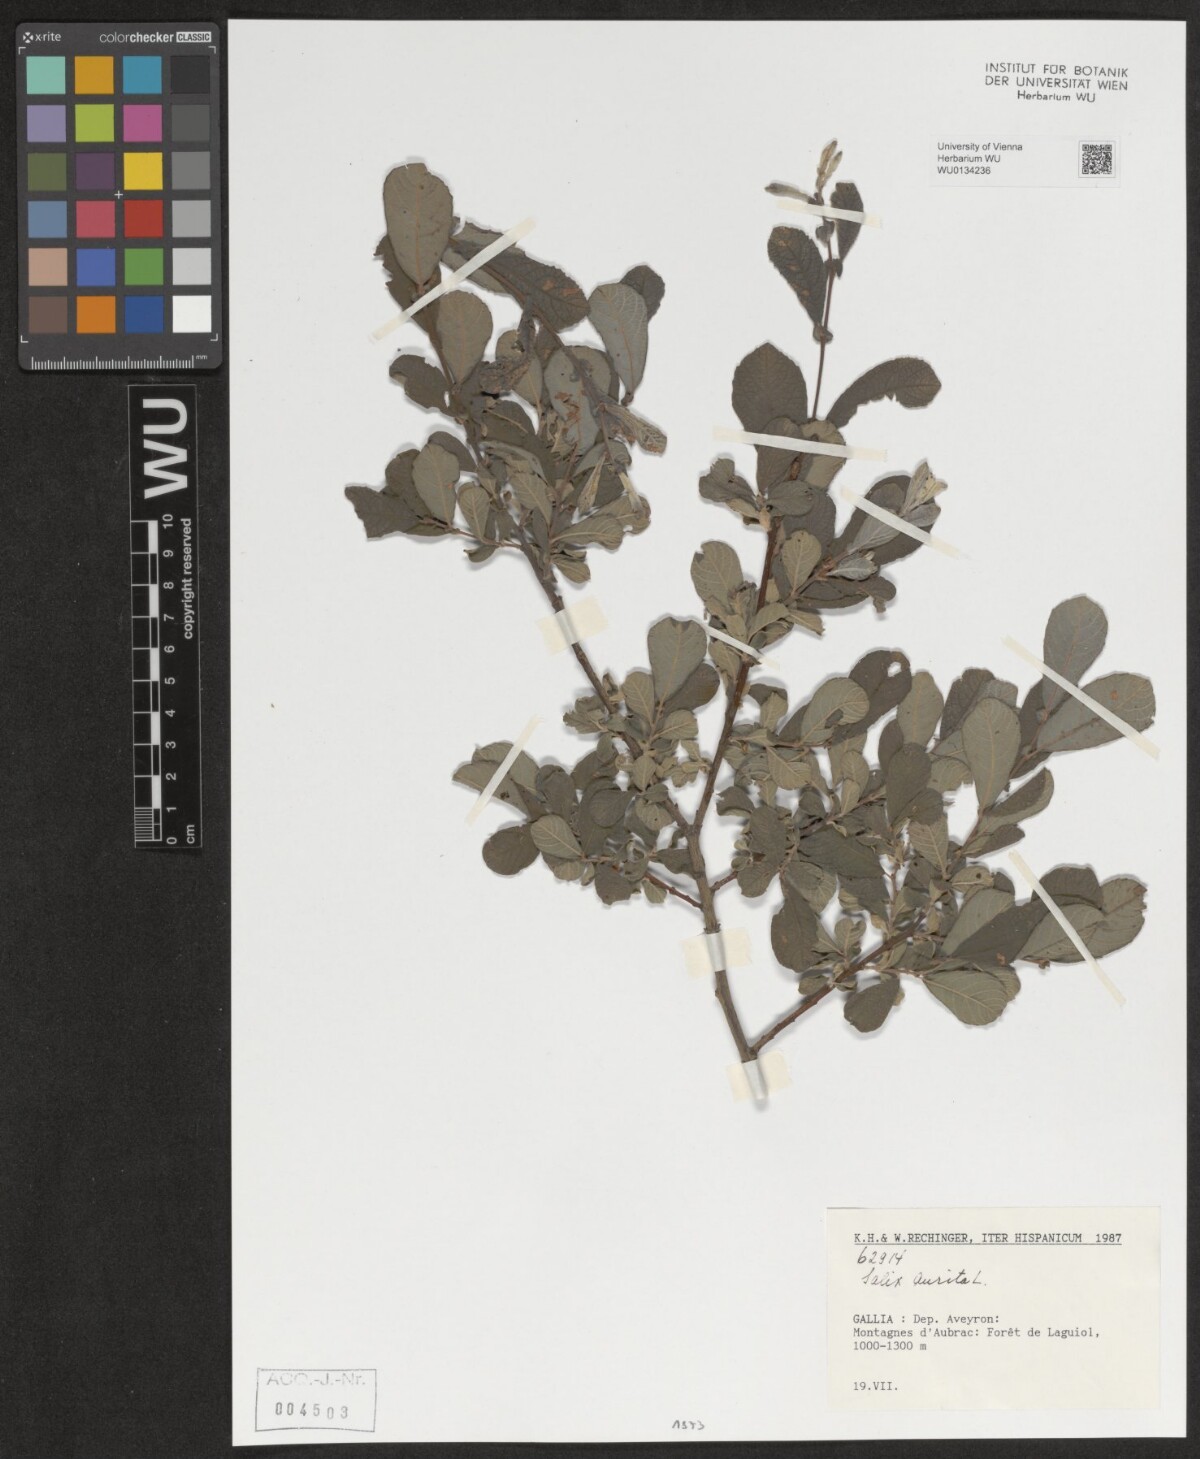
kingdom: Plantae
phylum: Tracheophyta
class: Magnoliopsida
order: Malpighiales
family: Salicaceae
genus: Salix
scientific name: Salix aurita
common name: Eared willow
